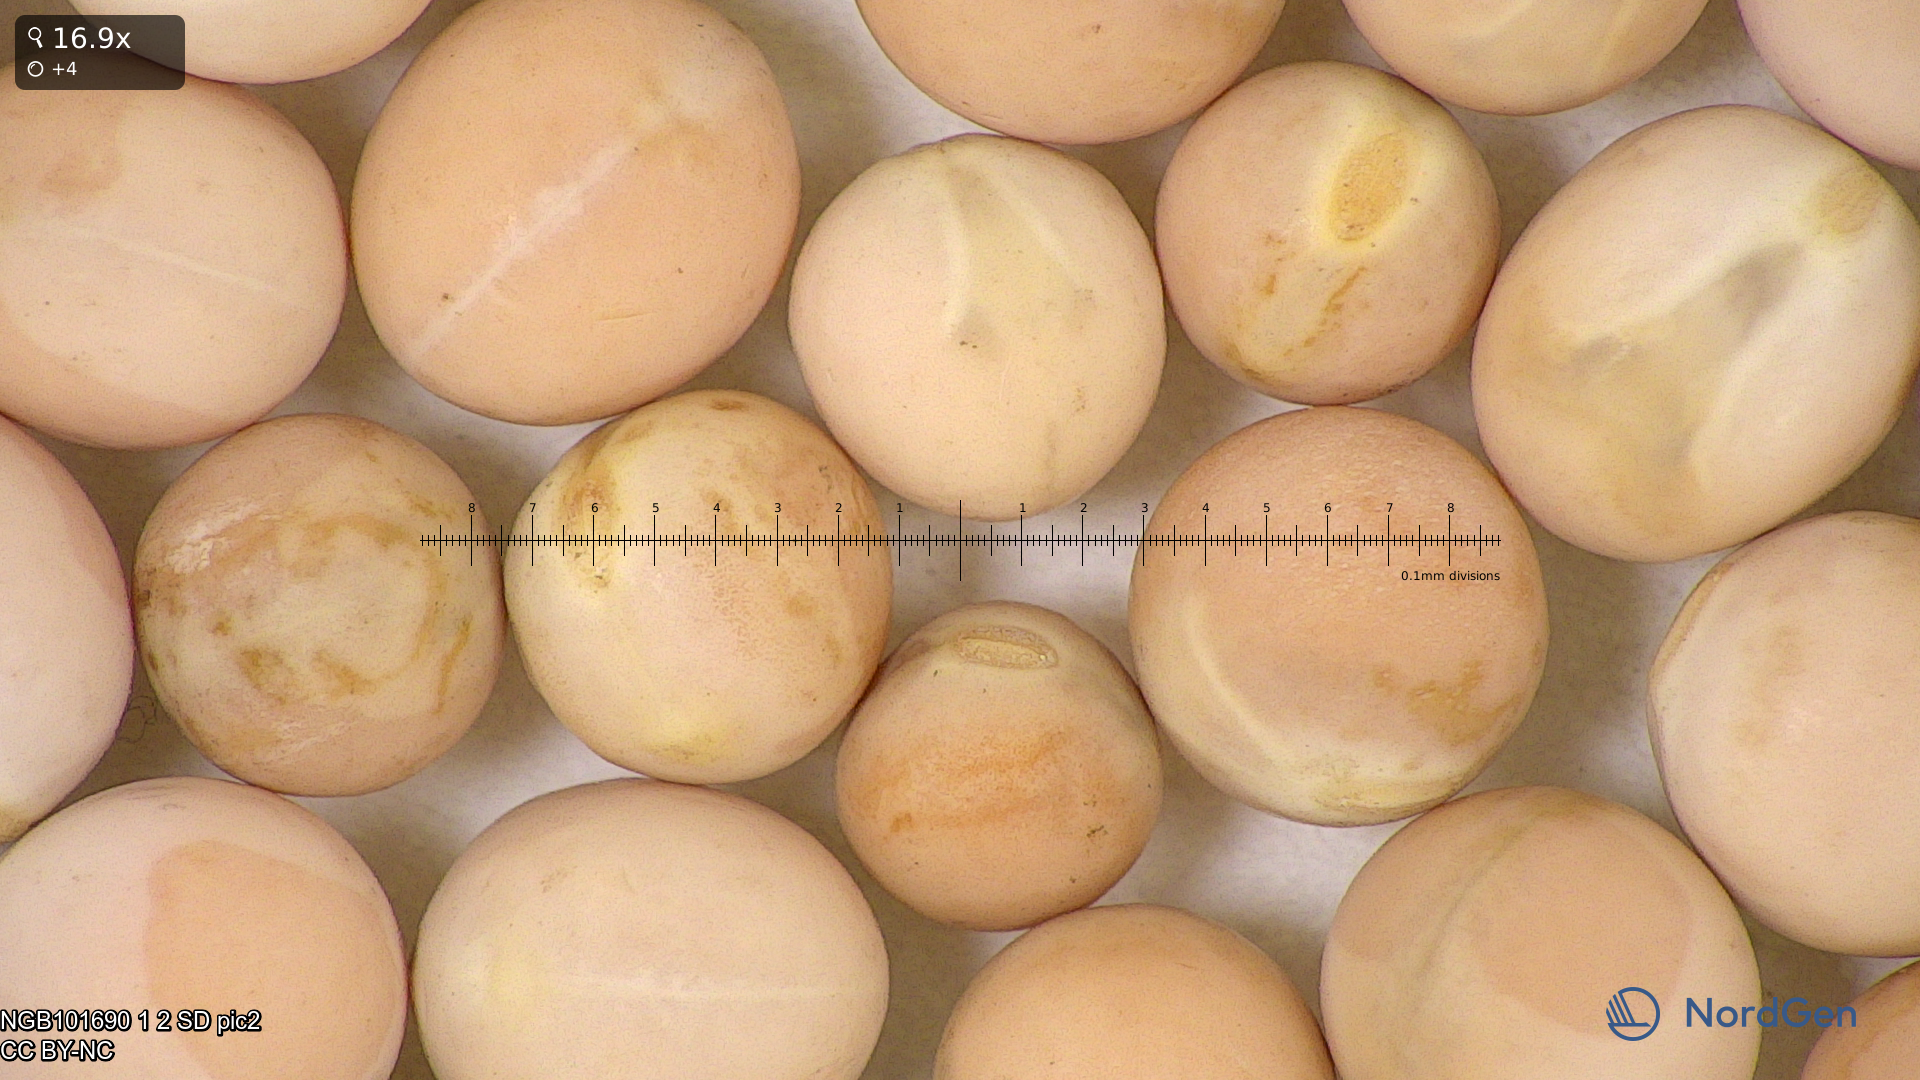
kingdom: Plantae
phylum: Tracheophyta
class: Magnoliopsida
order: Fabales
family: Fabaceae
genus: Lathyrus
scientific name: Lathyrus oleraceus
